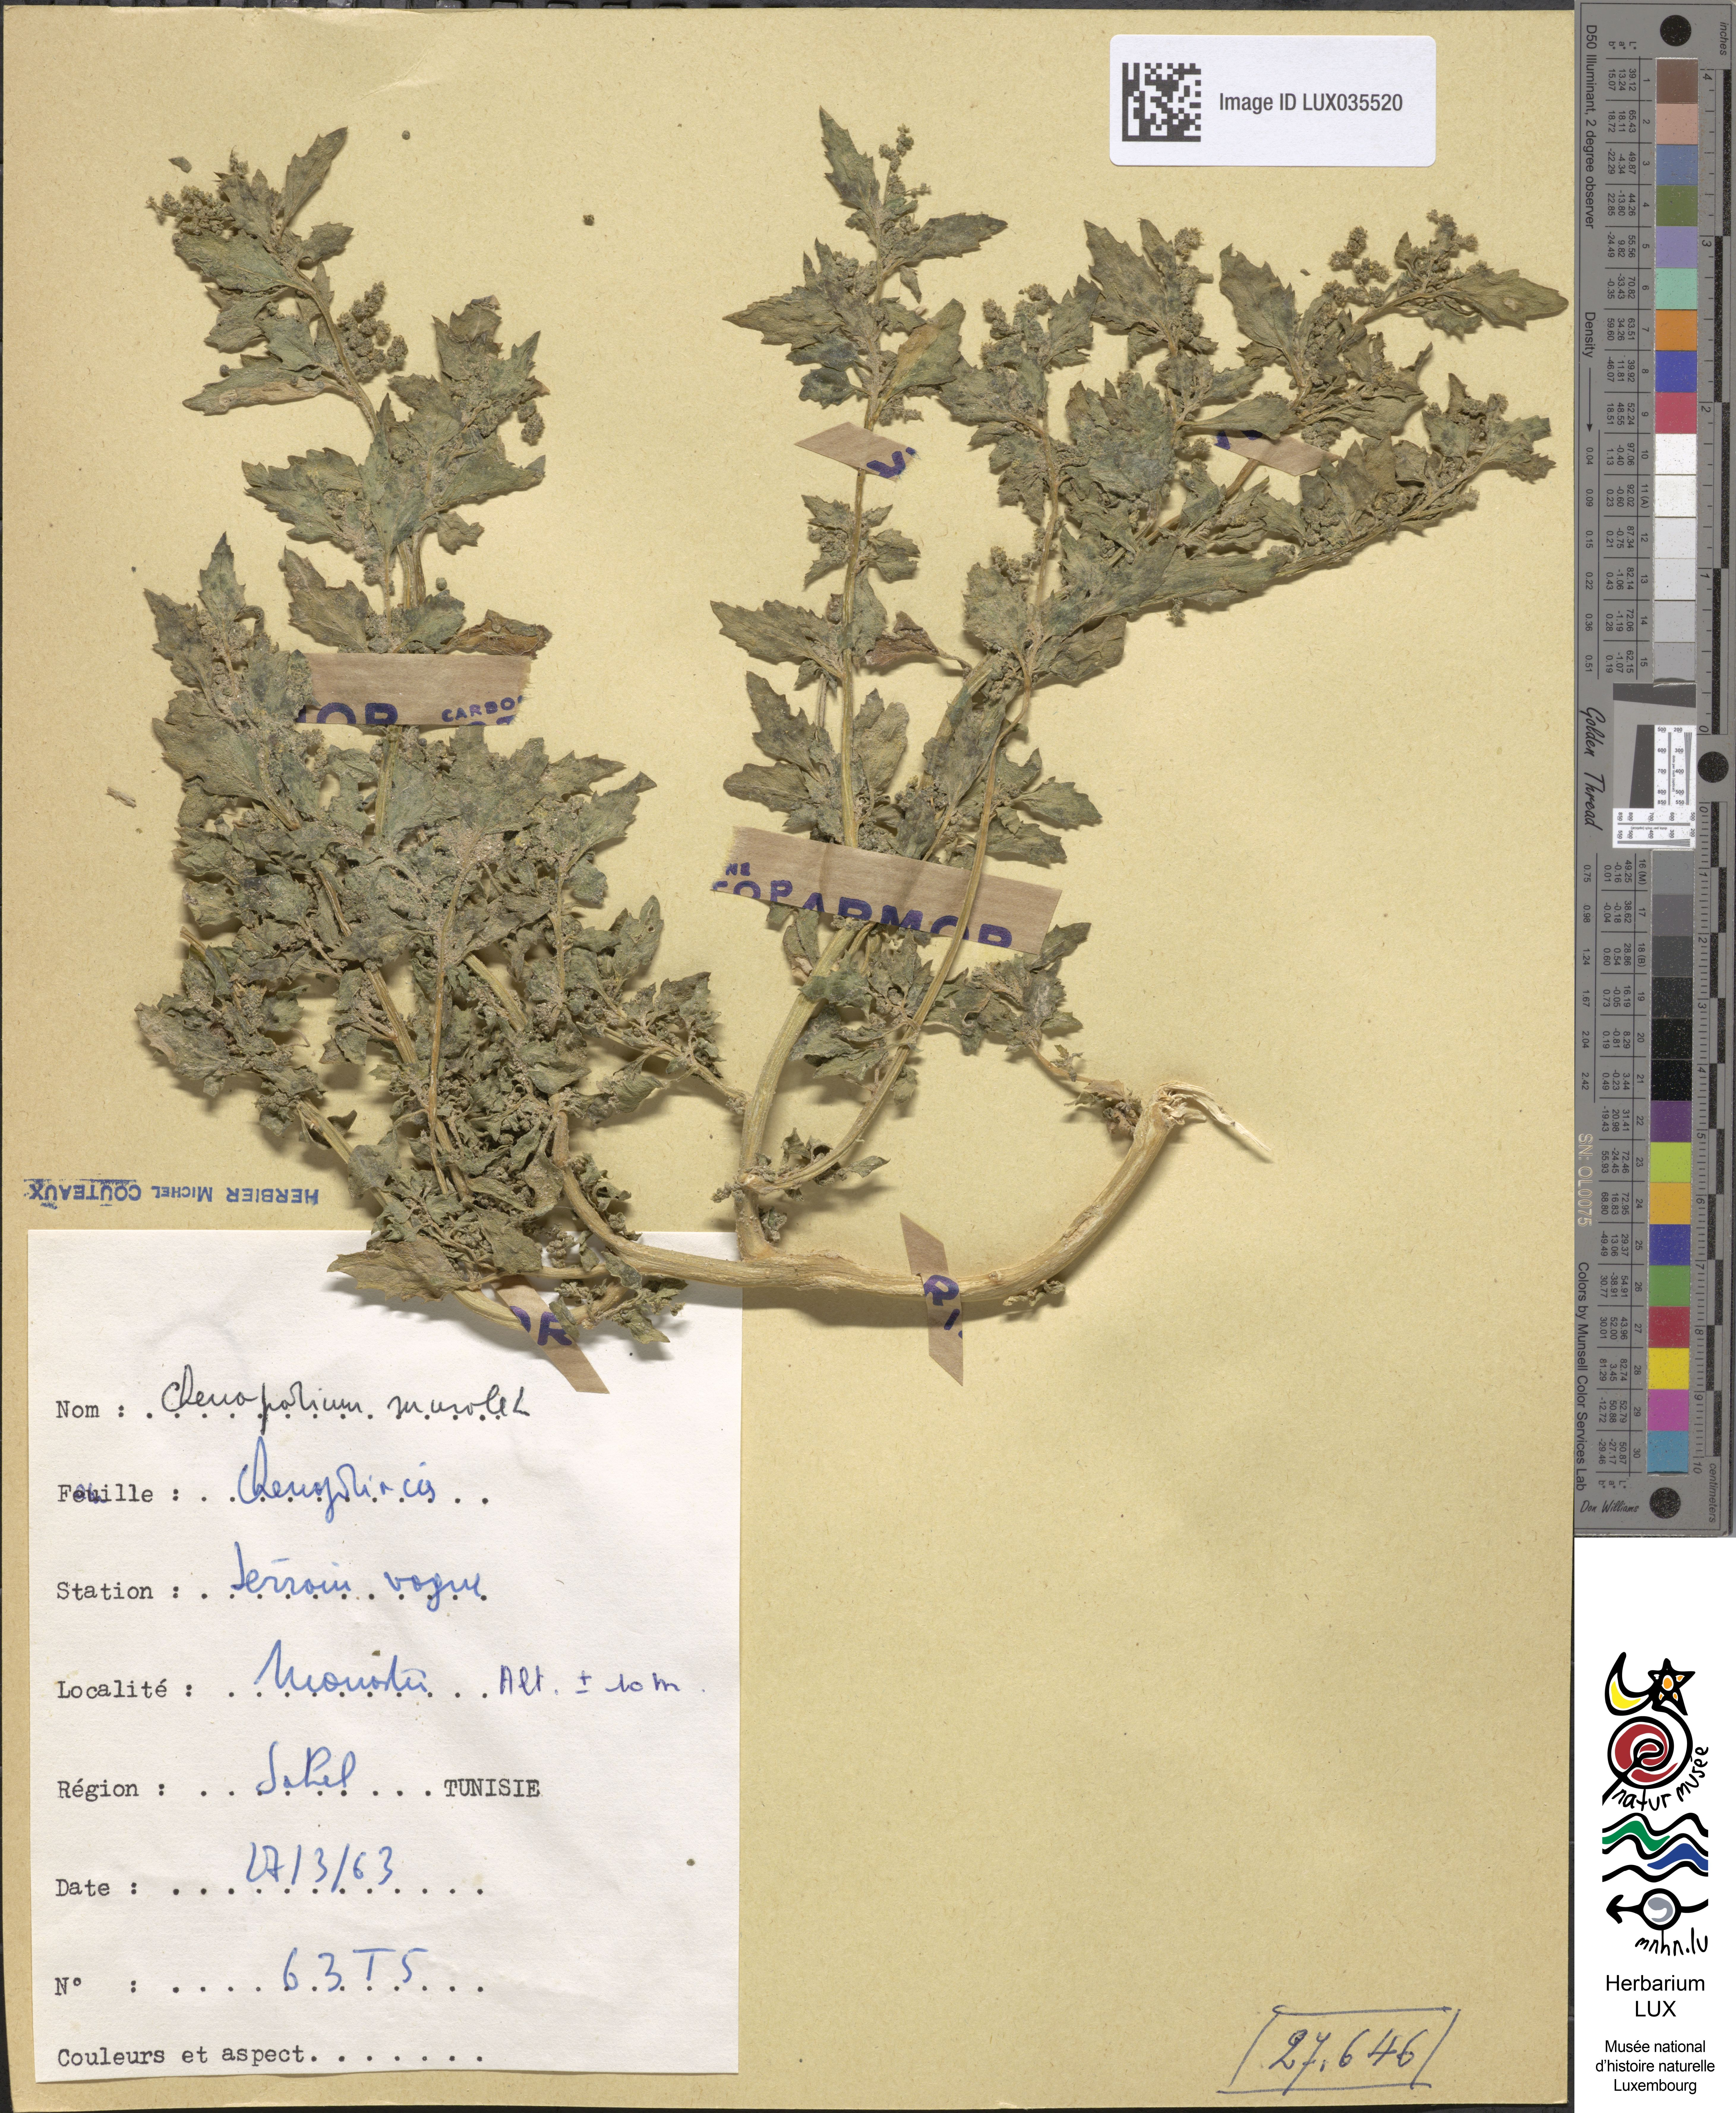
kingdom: Plantae
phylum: Tracheophyta
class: Magnoliopsida
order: Caryophyllales
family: Amaranthaceae
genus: Chenopodiastrum
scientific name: Chenopodiastrum murale
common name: Sowbane
